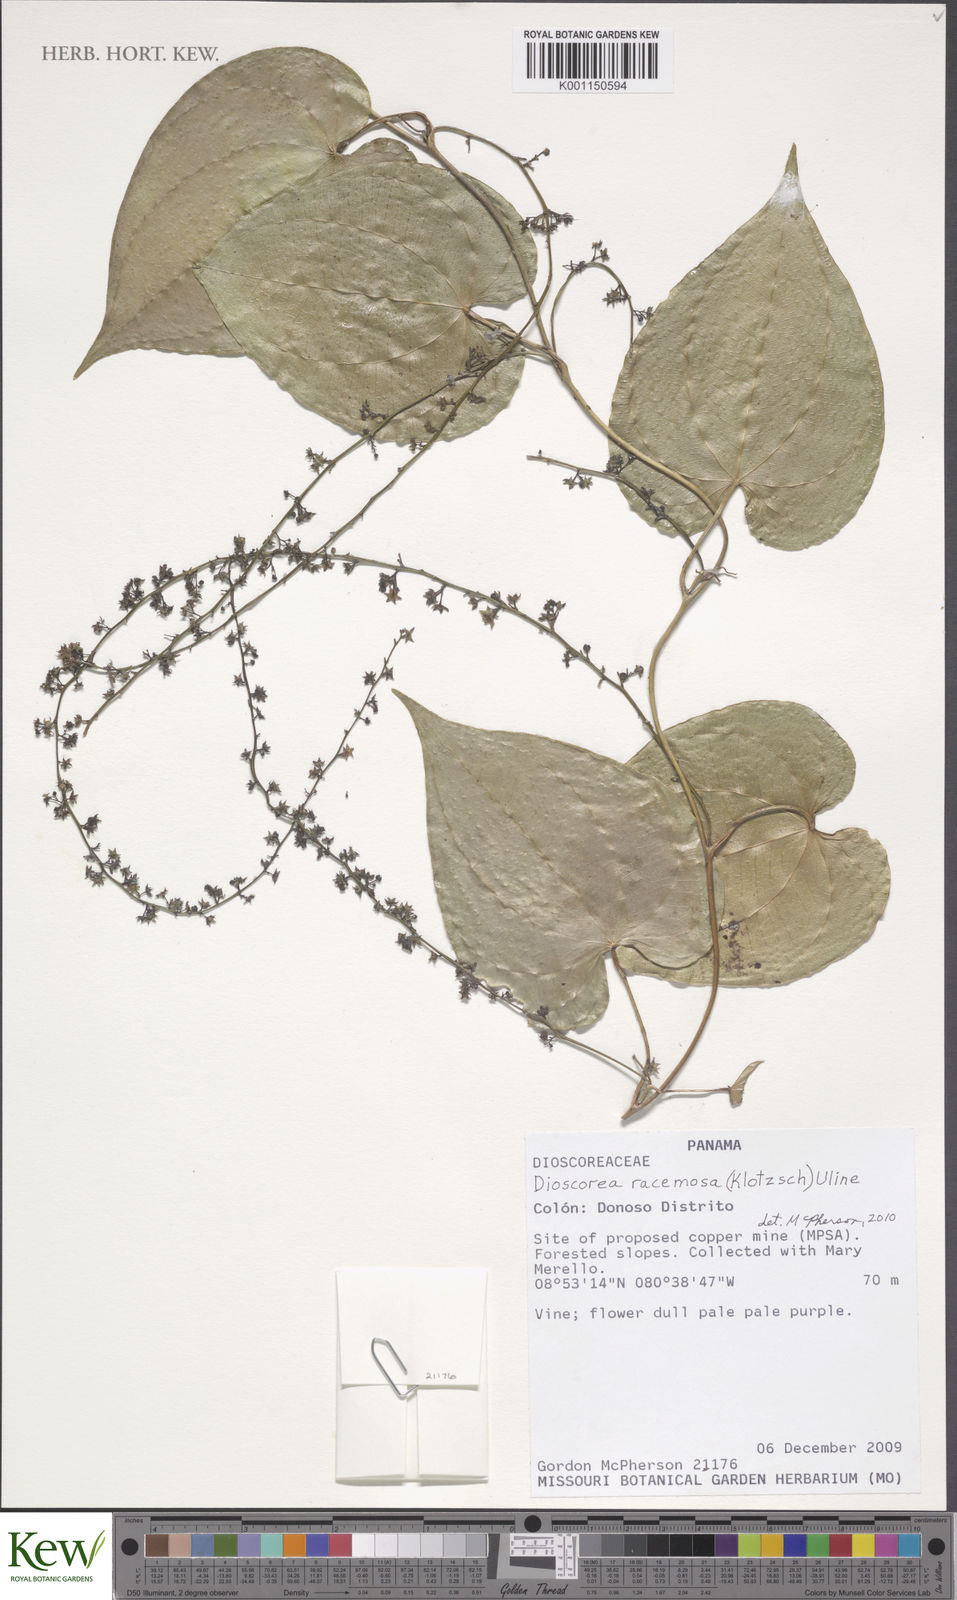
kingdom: Plantae
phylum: Tracheophyta
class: Liliopsida
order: Dioscoreales
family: Dioscoreaceae
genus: Dioscorea
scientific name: Dioscorea
